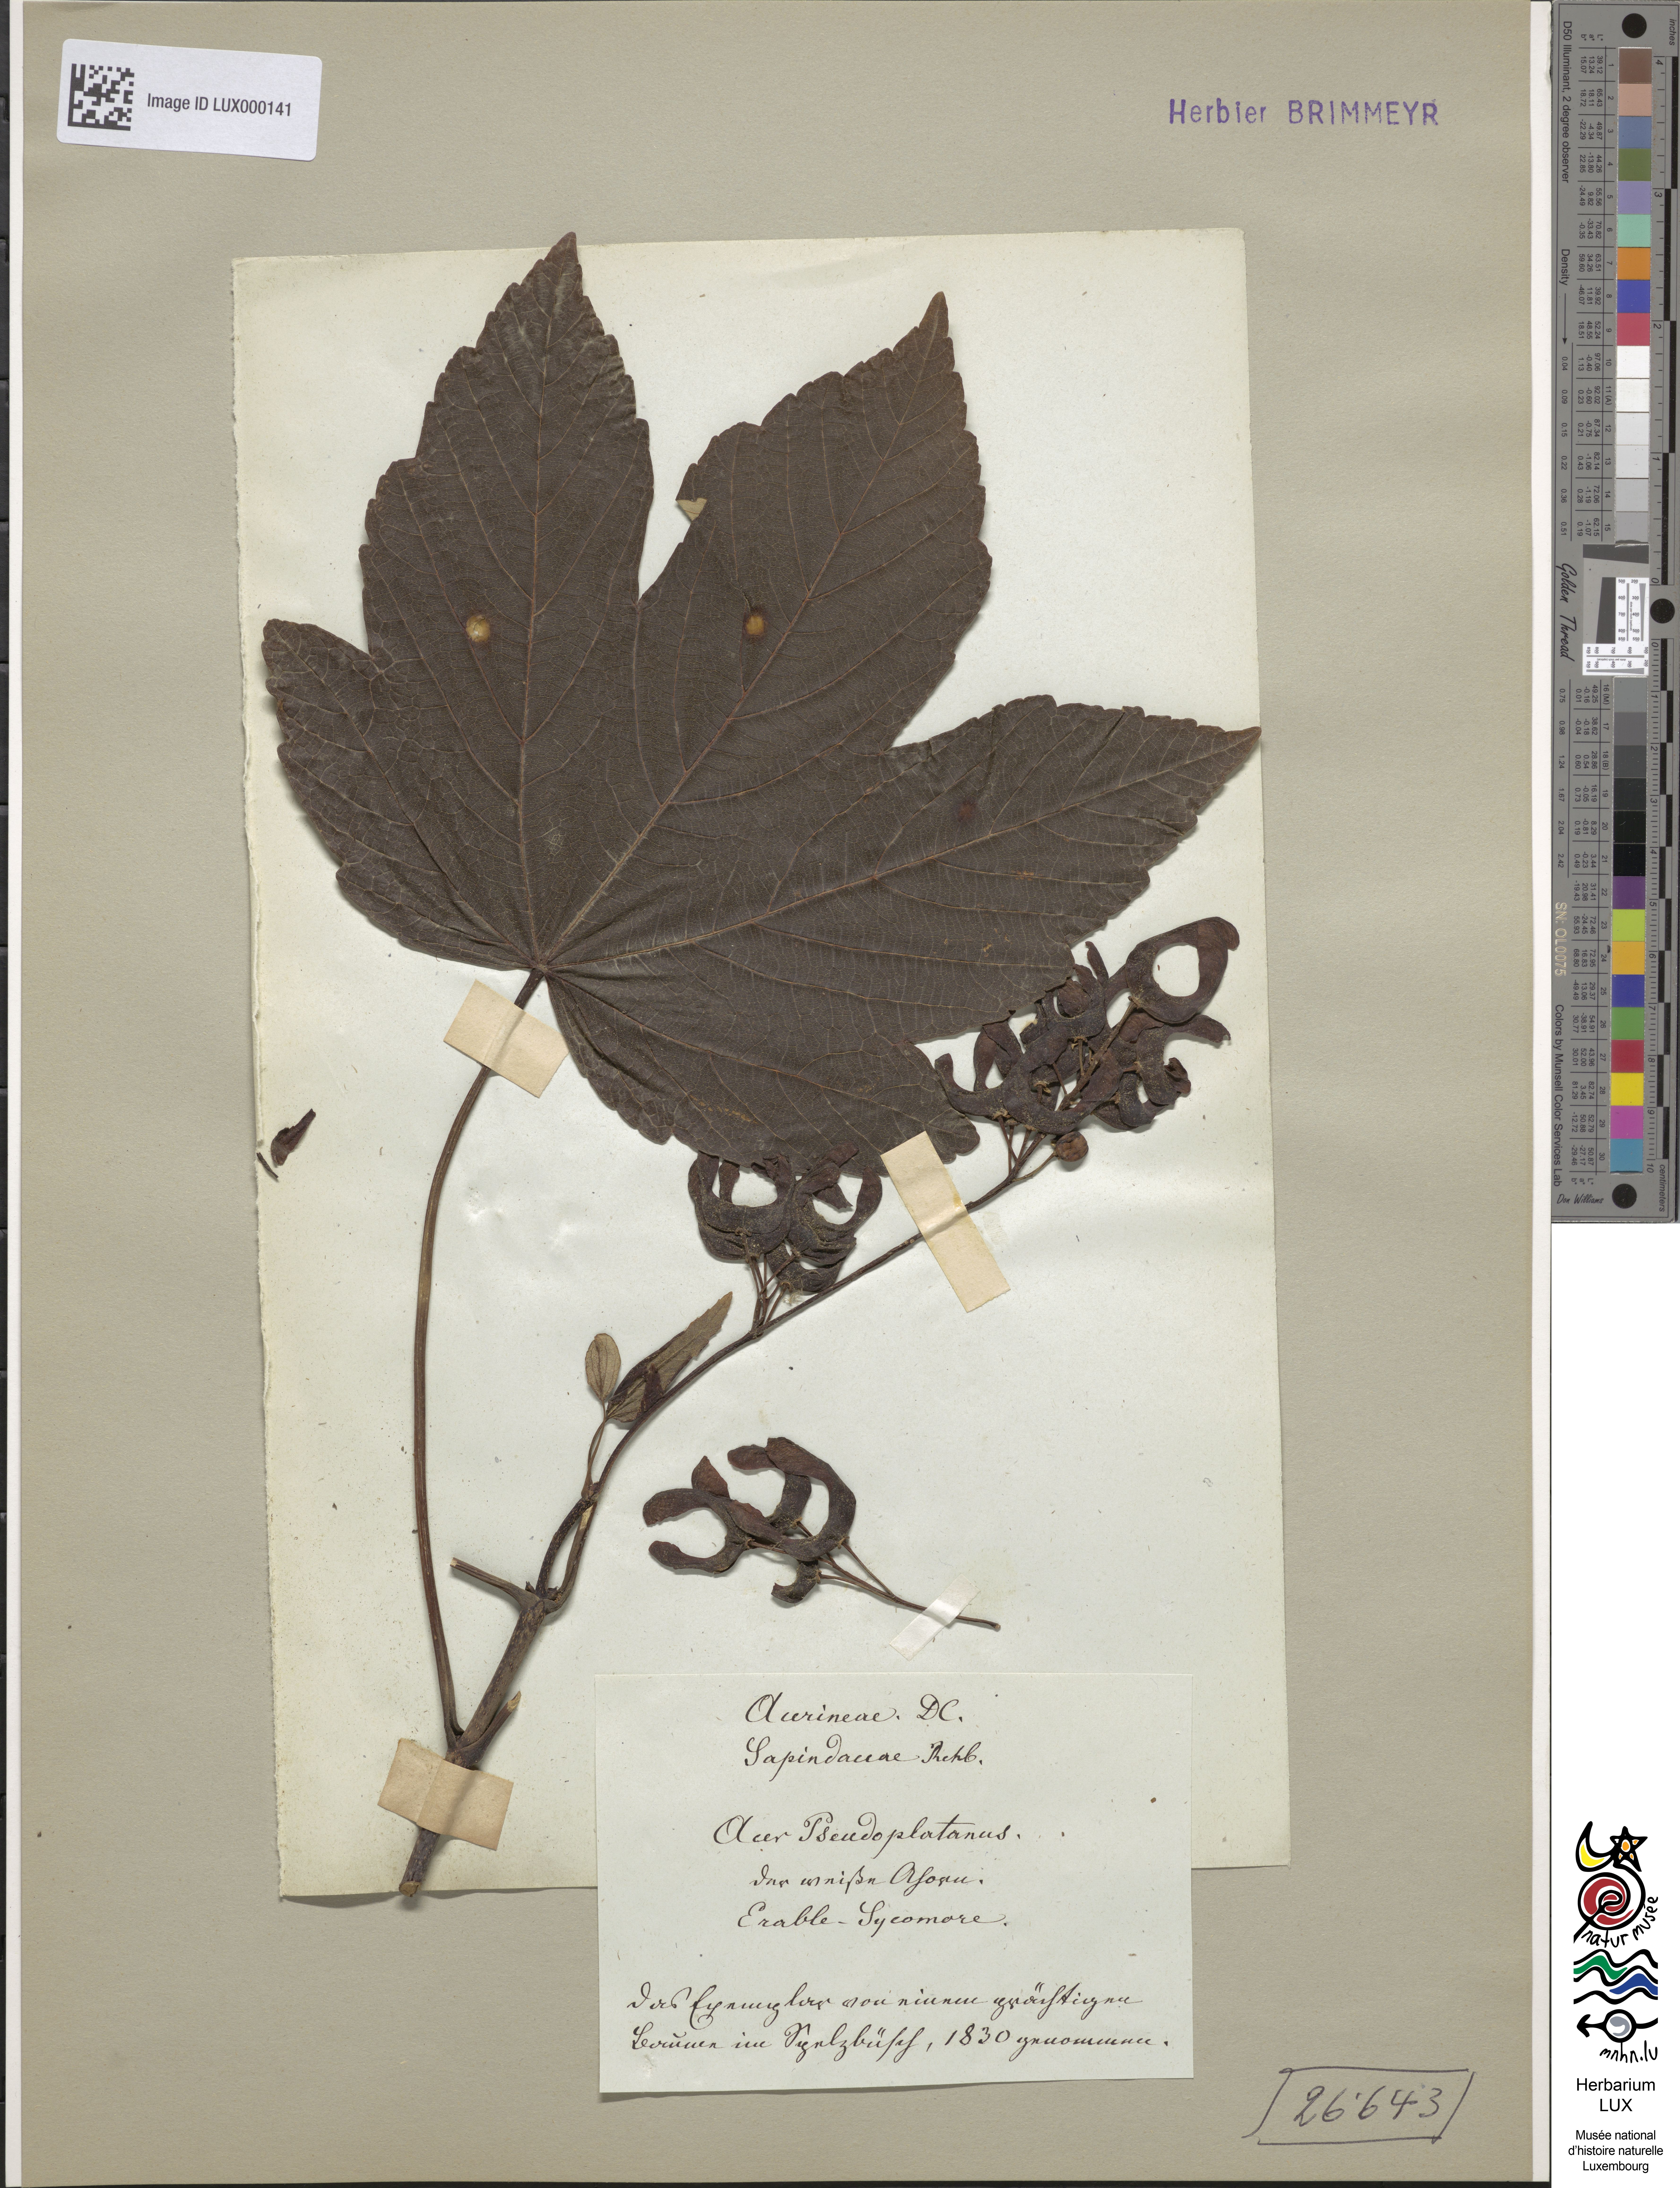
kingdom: Plantae
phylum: Tracheophyta
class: Magnoliopsida
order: Sapindales
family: Sapindaceae
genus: Acer
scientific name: Acer pseudoplatanus
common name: Sycamore
